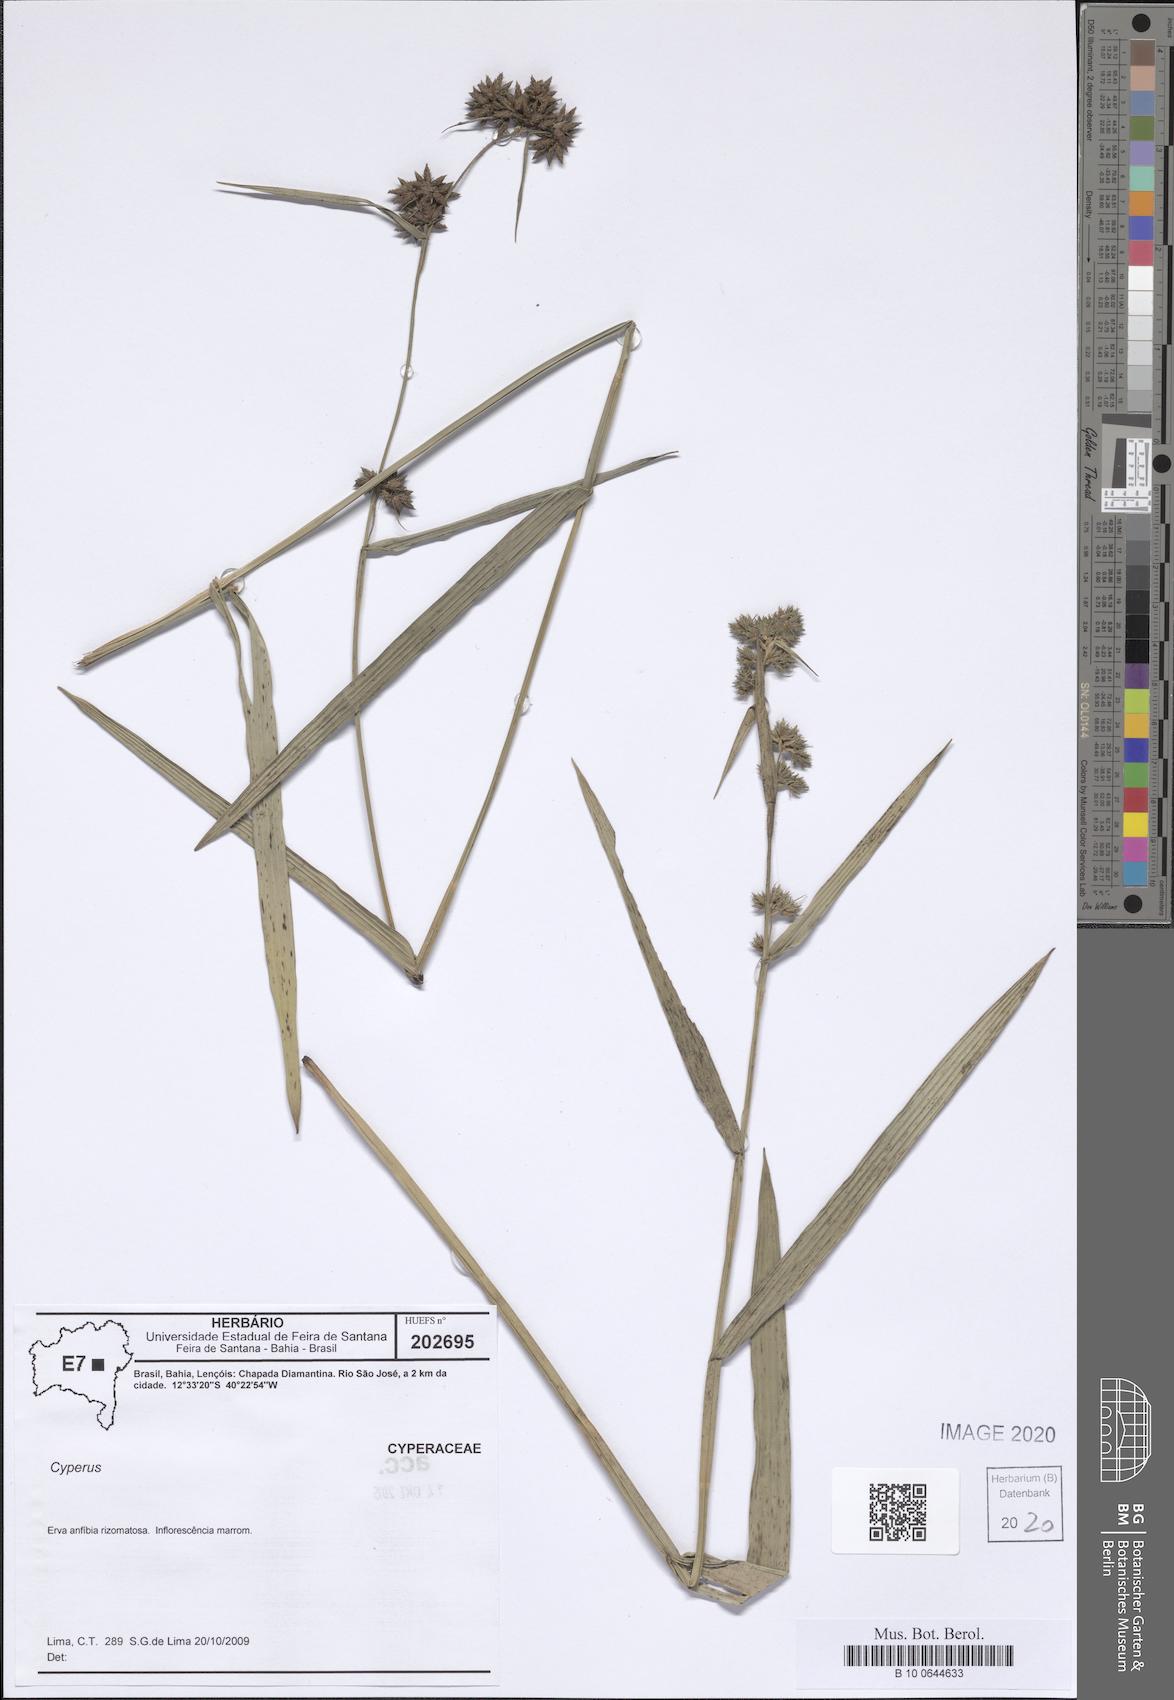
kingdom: Plantae
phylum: Tracheophyta
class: Liliopsida
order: Poales
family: Cyperaceae
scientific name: Cyperaceae
